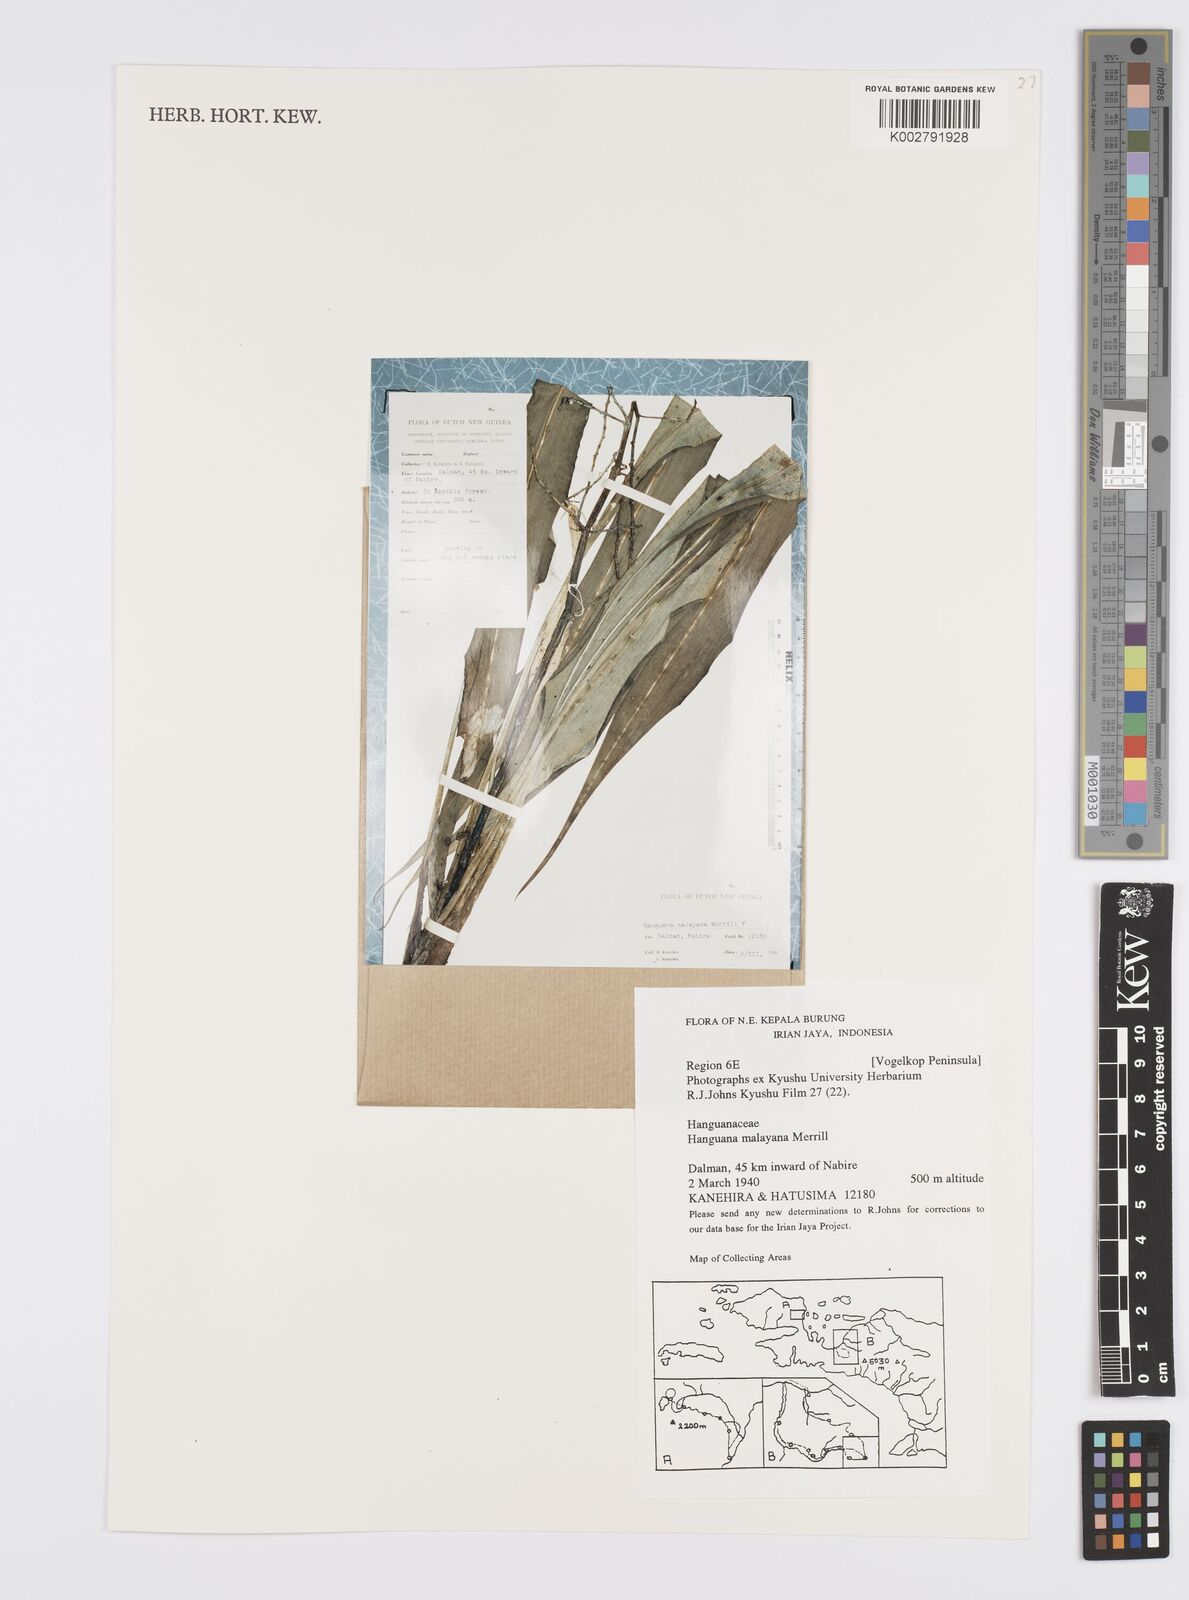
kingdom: Plantae
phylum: Tracheophyta
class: Liliopsida
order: Commelinales
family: Hanguanaceae
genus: Hanguana
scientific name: Hanguana malayana
